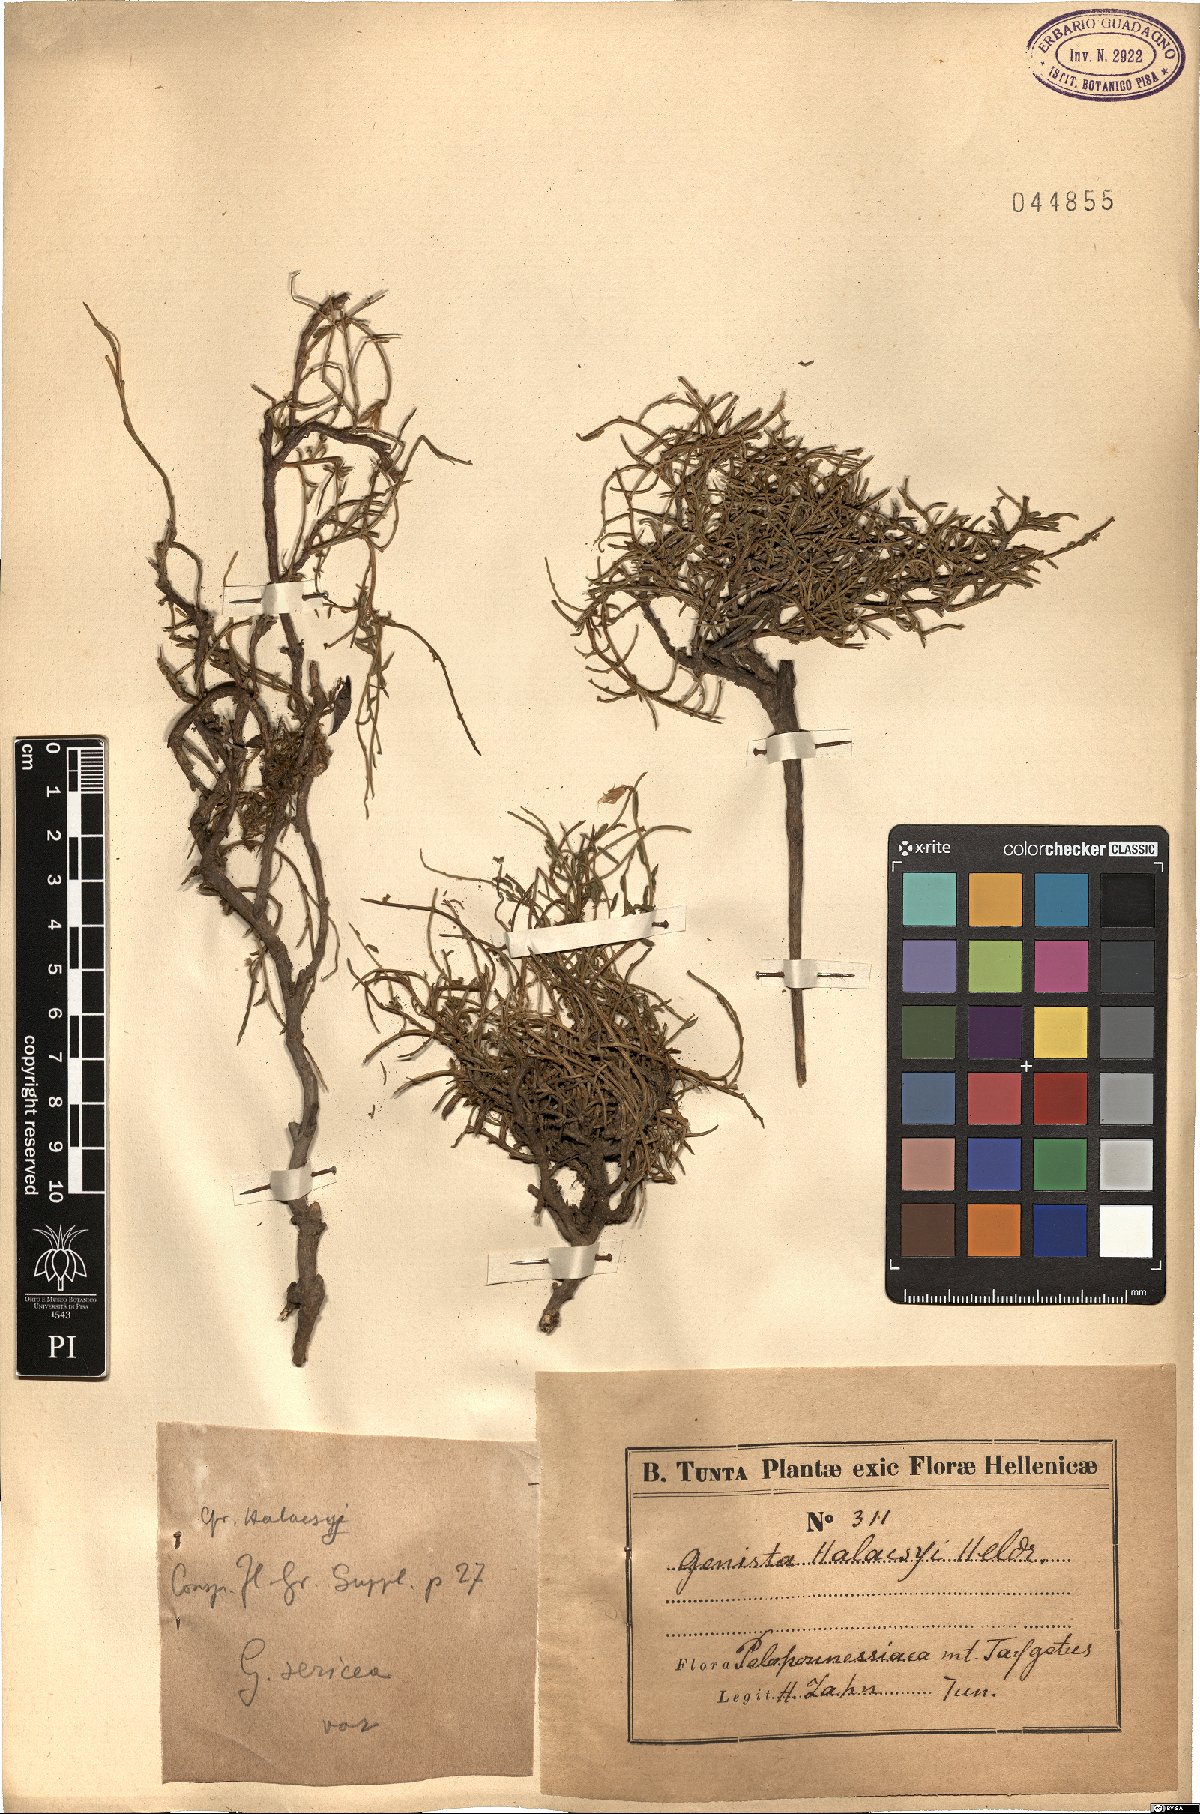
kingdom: Plantae
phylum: Tracheophyta
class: Magnoliopsida
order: Fabales
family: Fabaceae
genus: Genista
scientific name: Genista halacsyi
